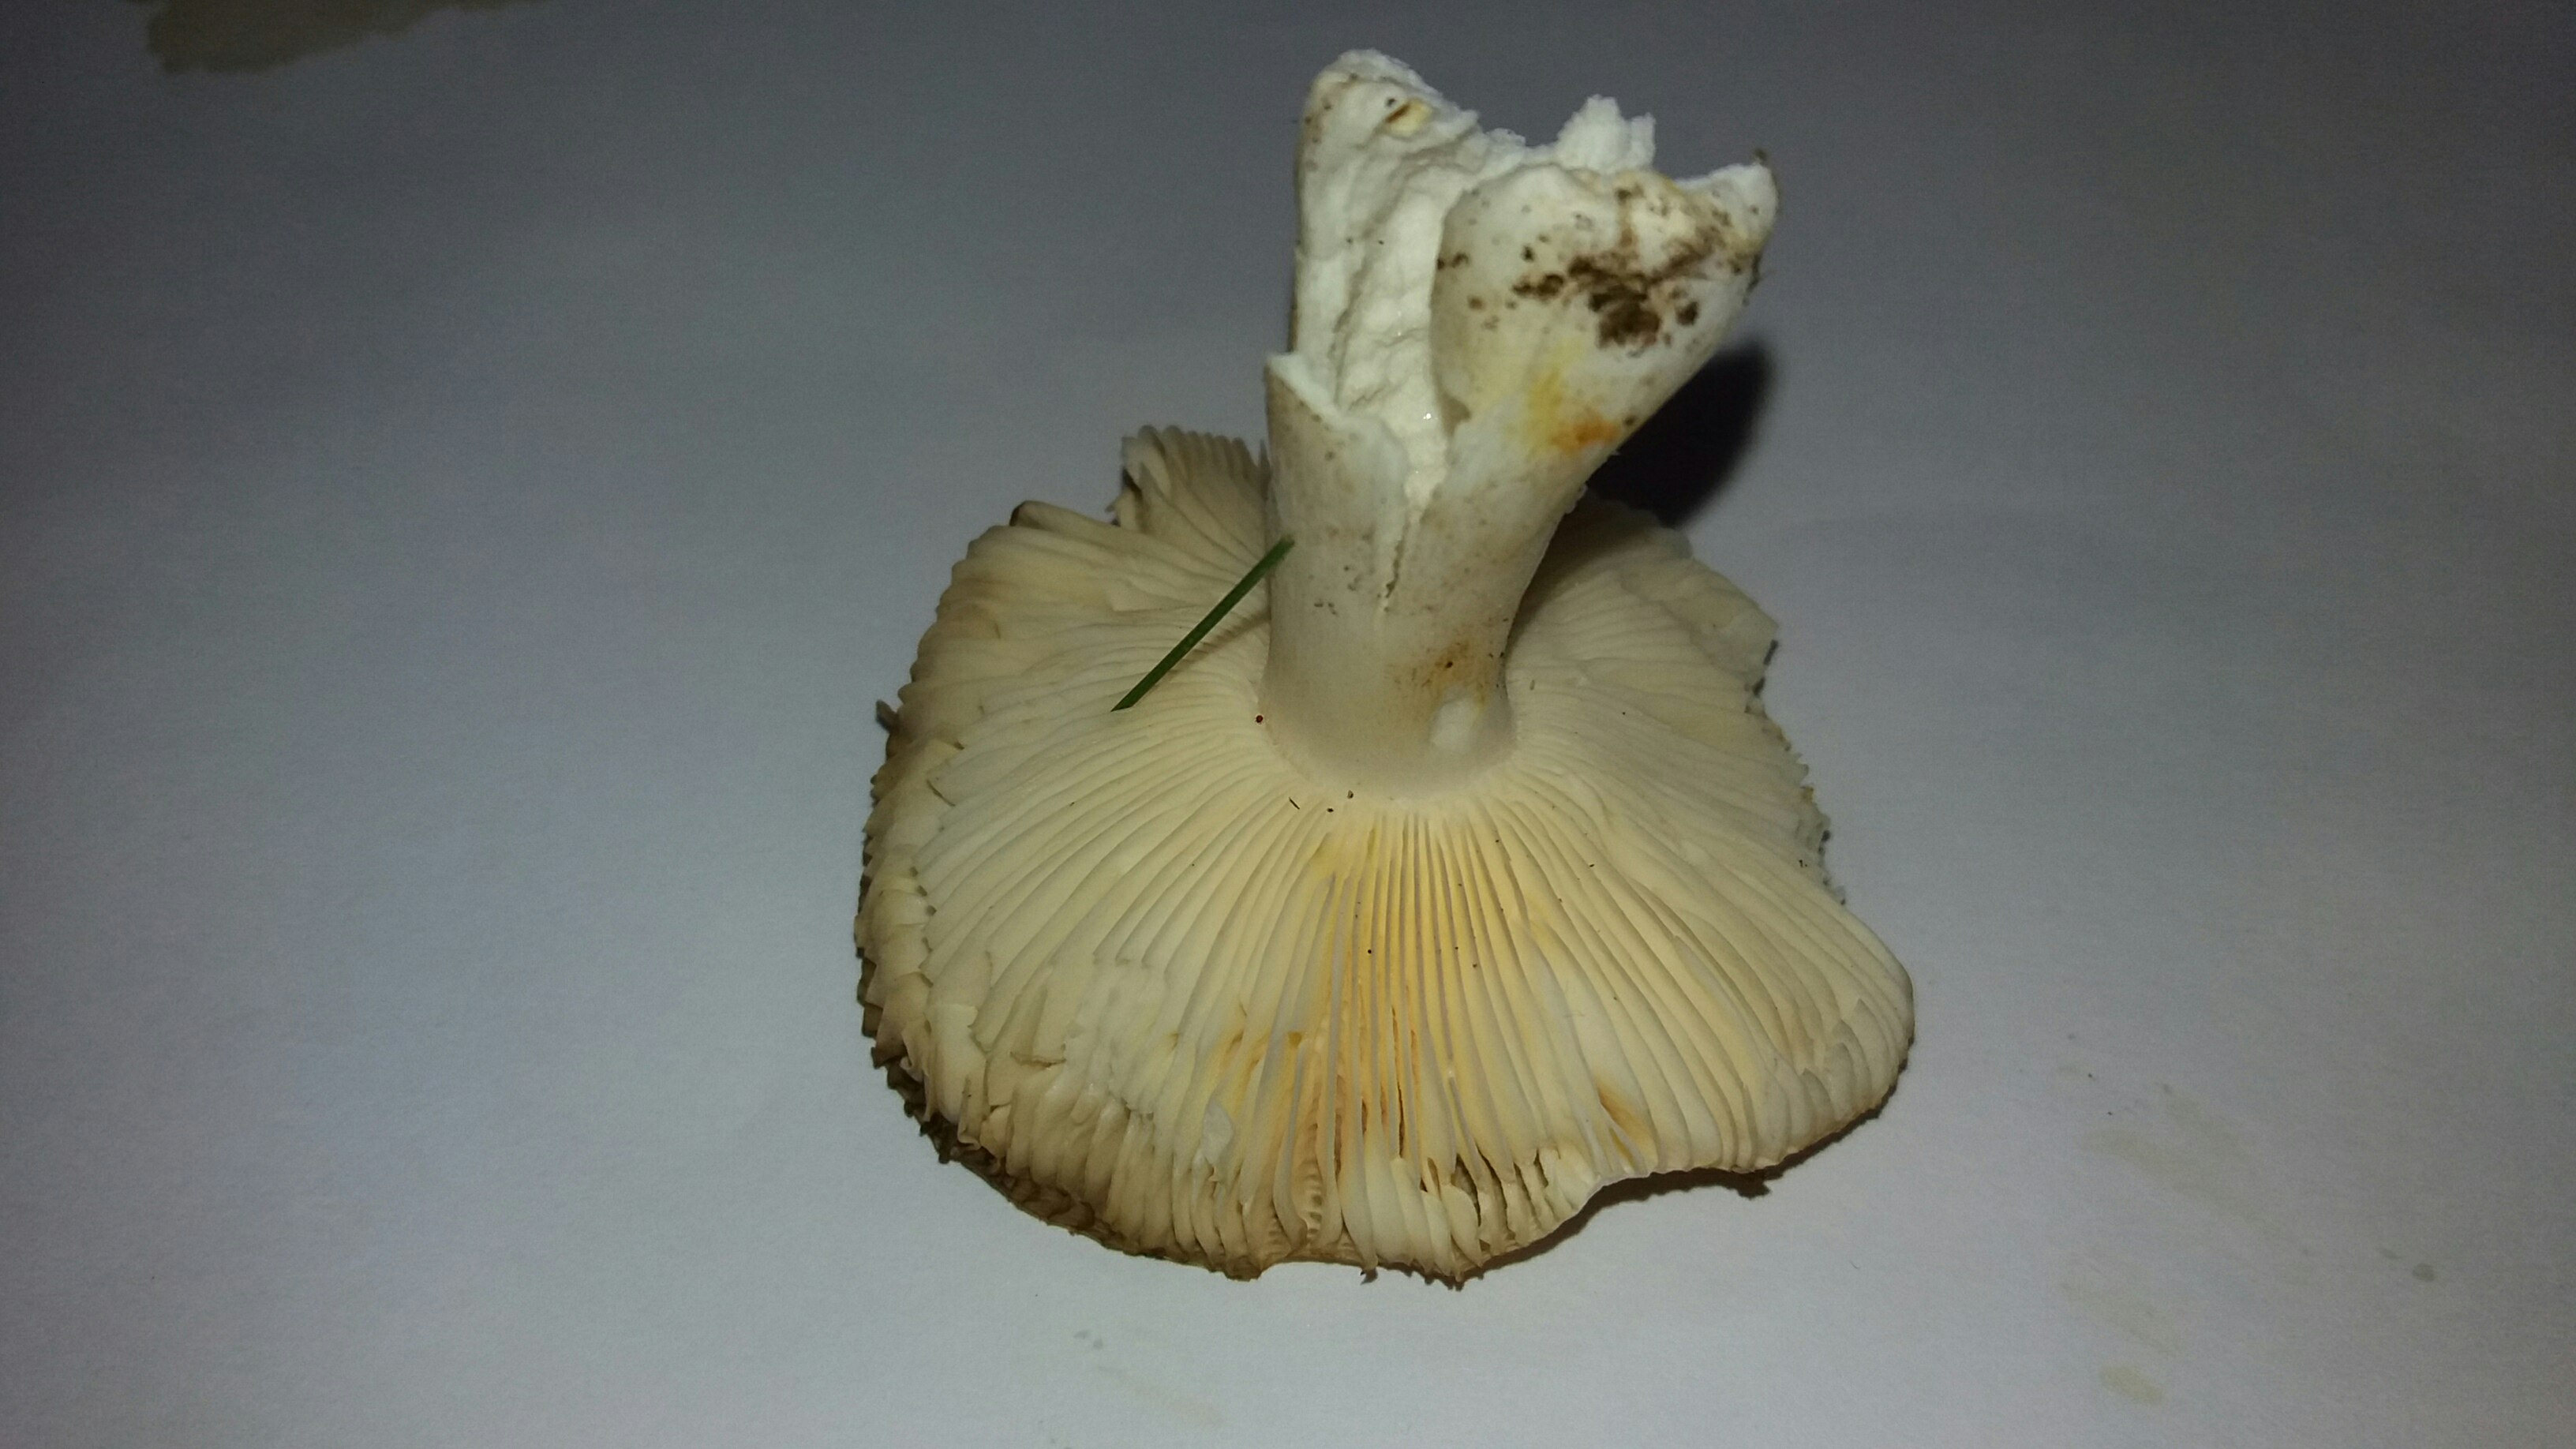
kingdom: Fungi
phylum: Basidiomycota
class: Agaricomycetes
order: Russulales
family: Russulaceae
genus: Russula
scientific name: Russula solaris
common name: sol-skørhat
